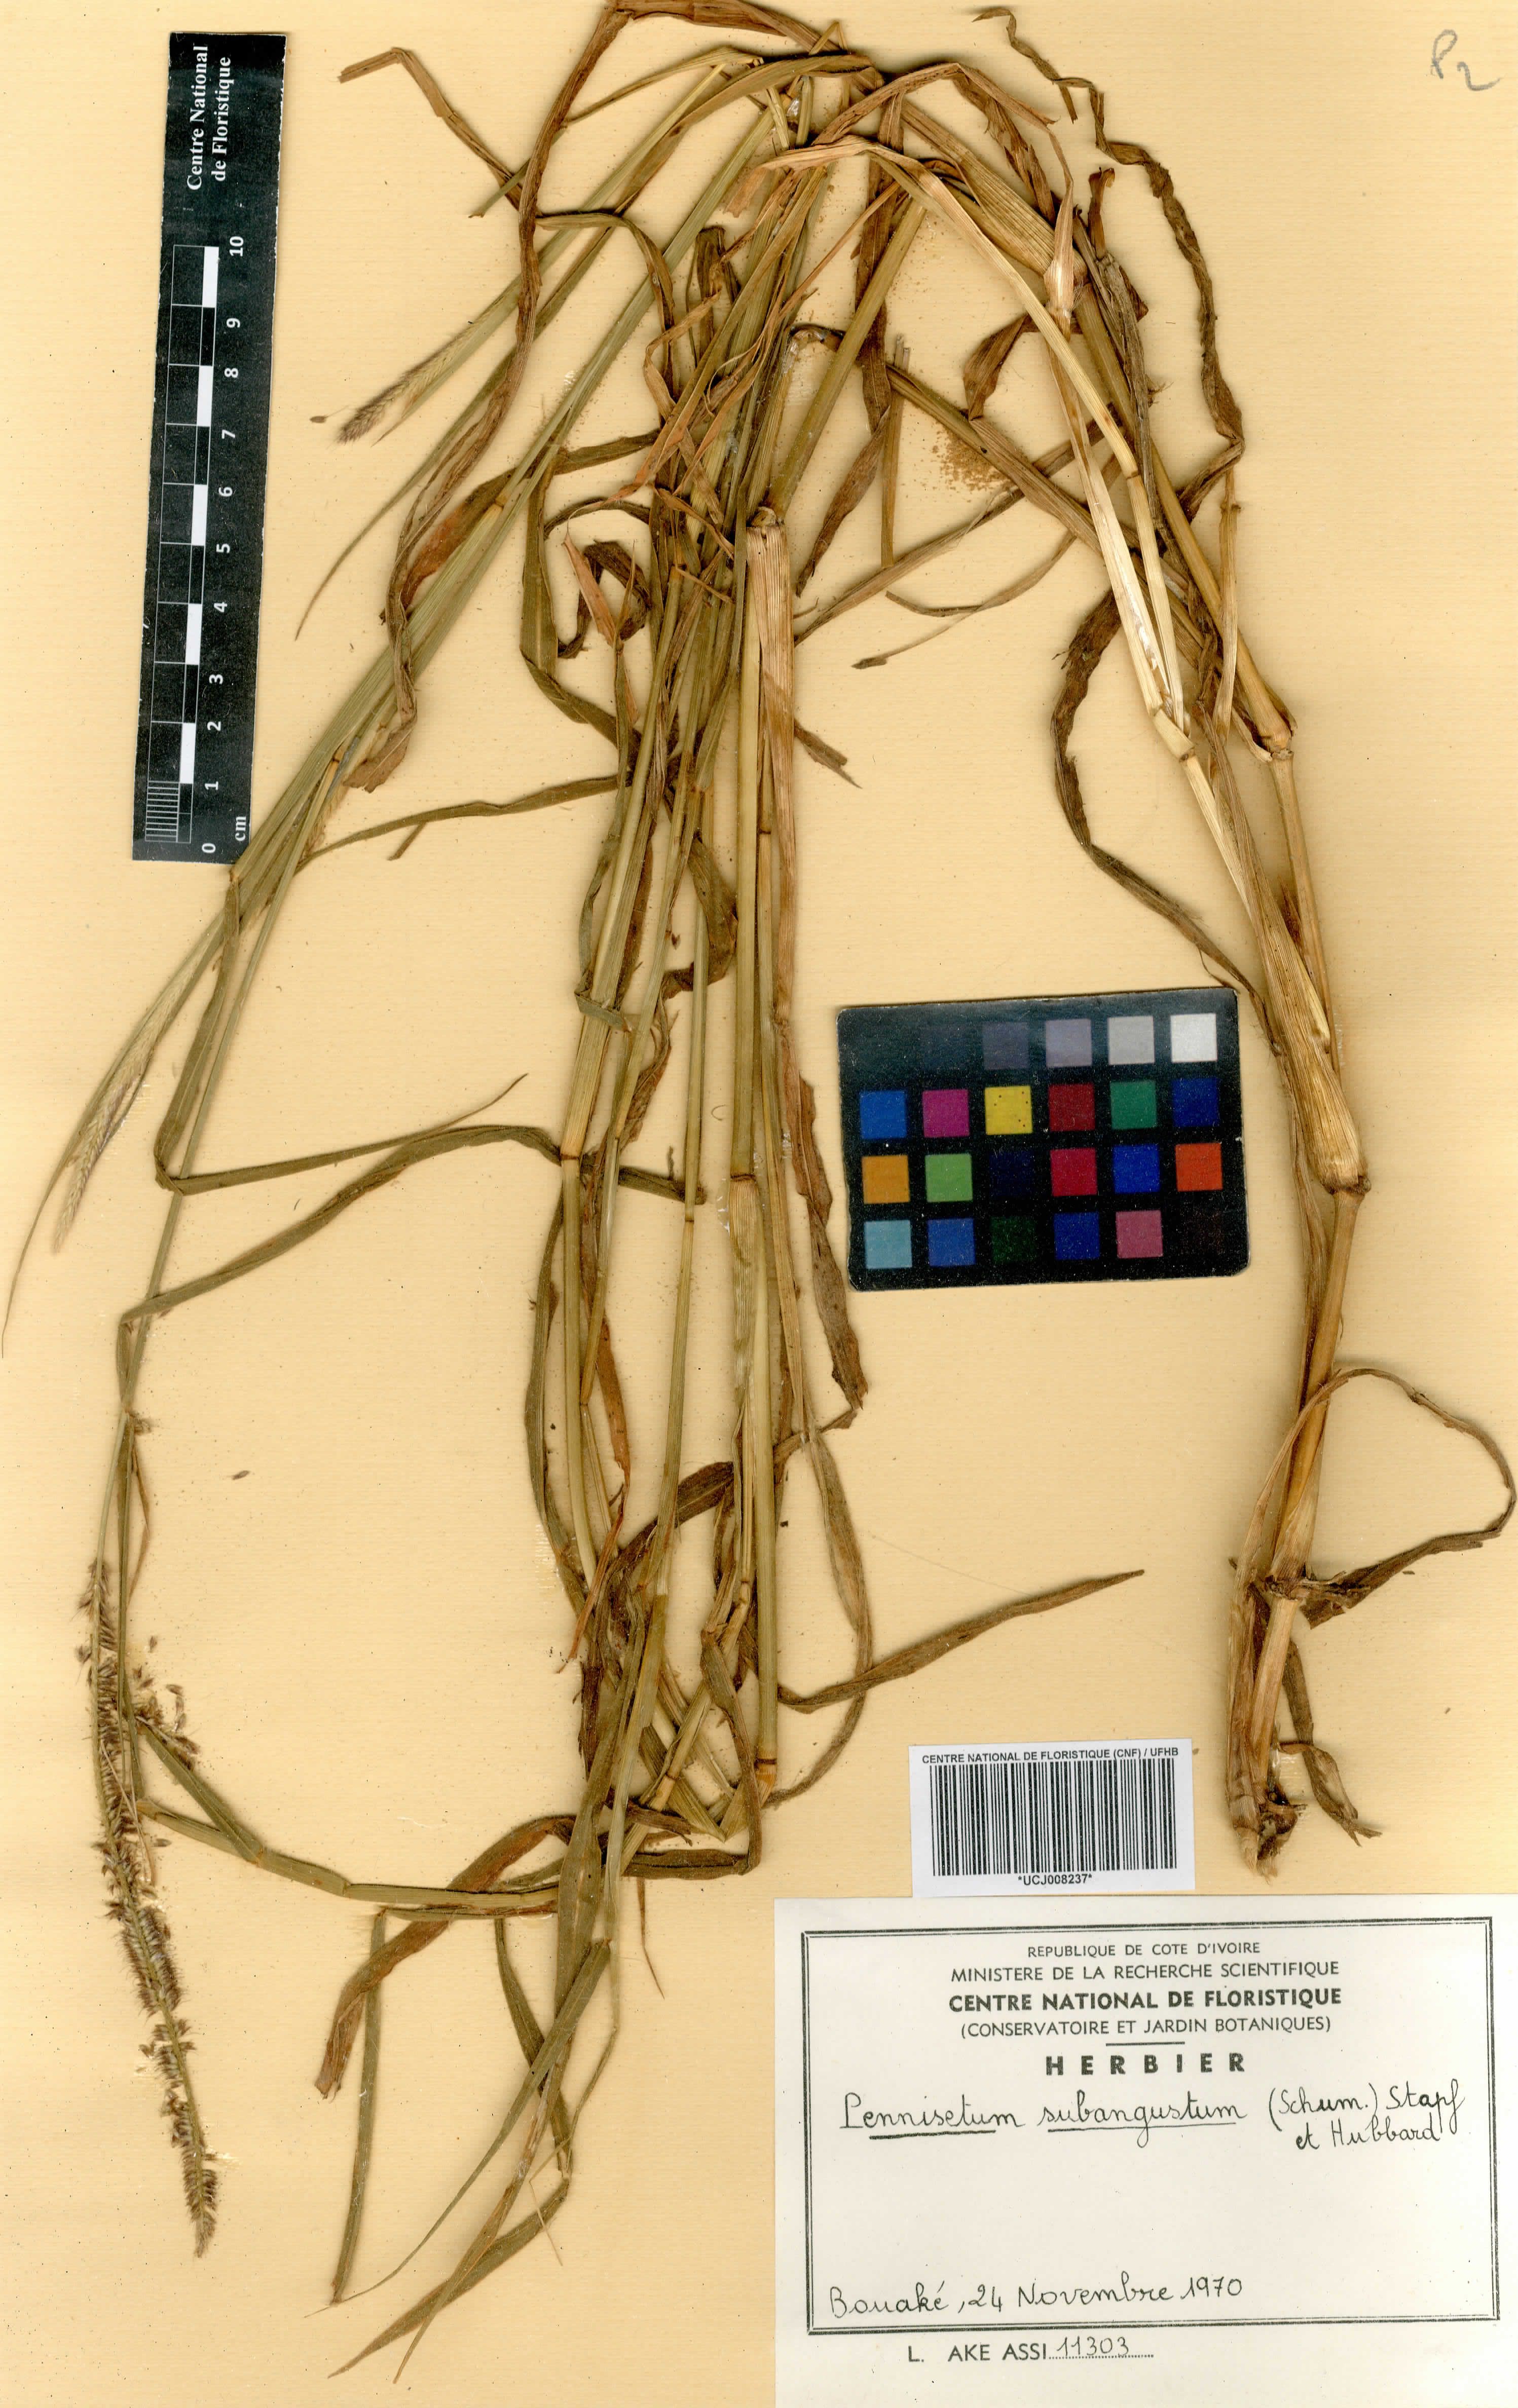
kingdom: Plantae
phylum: Tracheophyta
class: Liliopsida
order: Poales
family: Cyperaceae
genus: Fimbristylis
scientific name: Fimbristylis littoralis
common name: Fimbry
